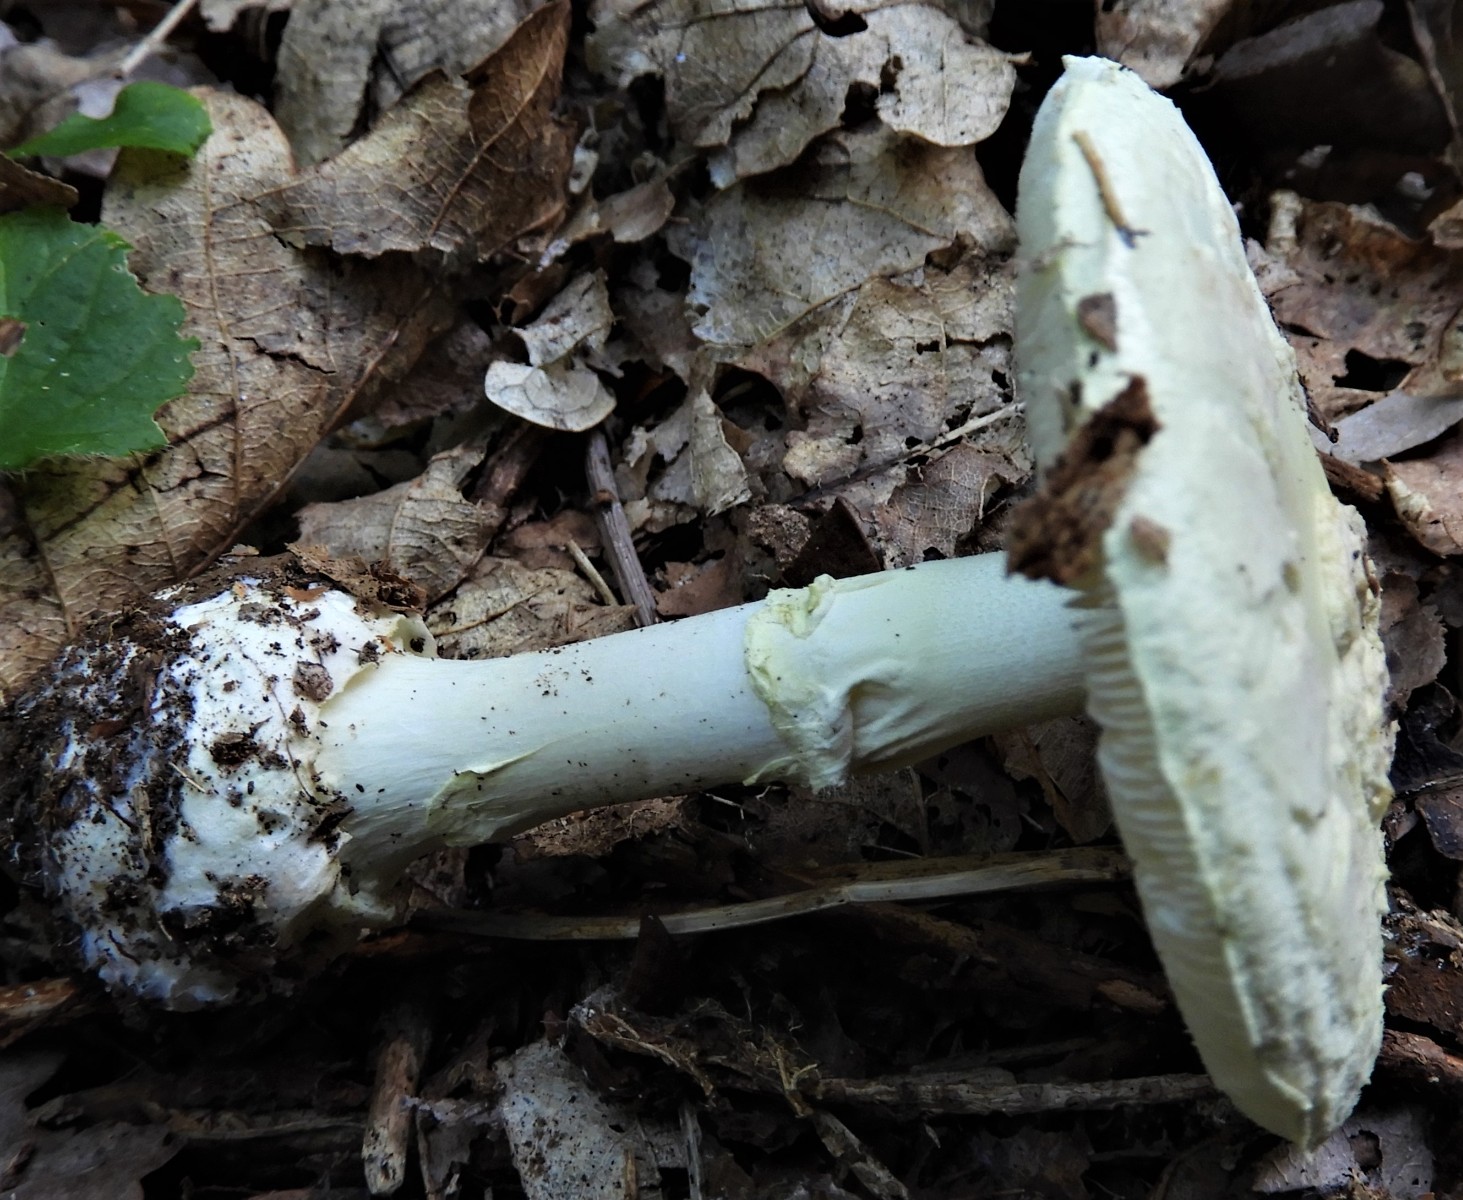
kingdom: Fungi
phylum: Basidiomycota
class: Agaricomycetes
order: Agaricales
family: Amanitaceae
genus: Amanita
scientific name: Amanita citrina
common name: kugleknoldet fluesvamp
